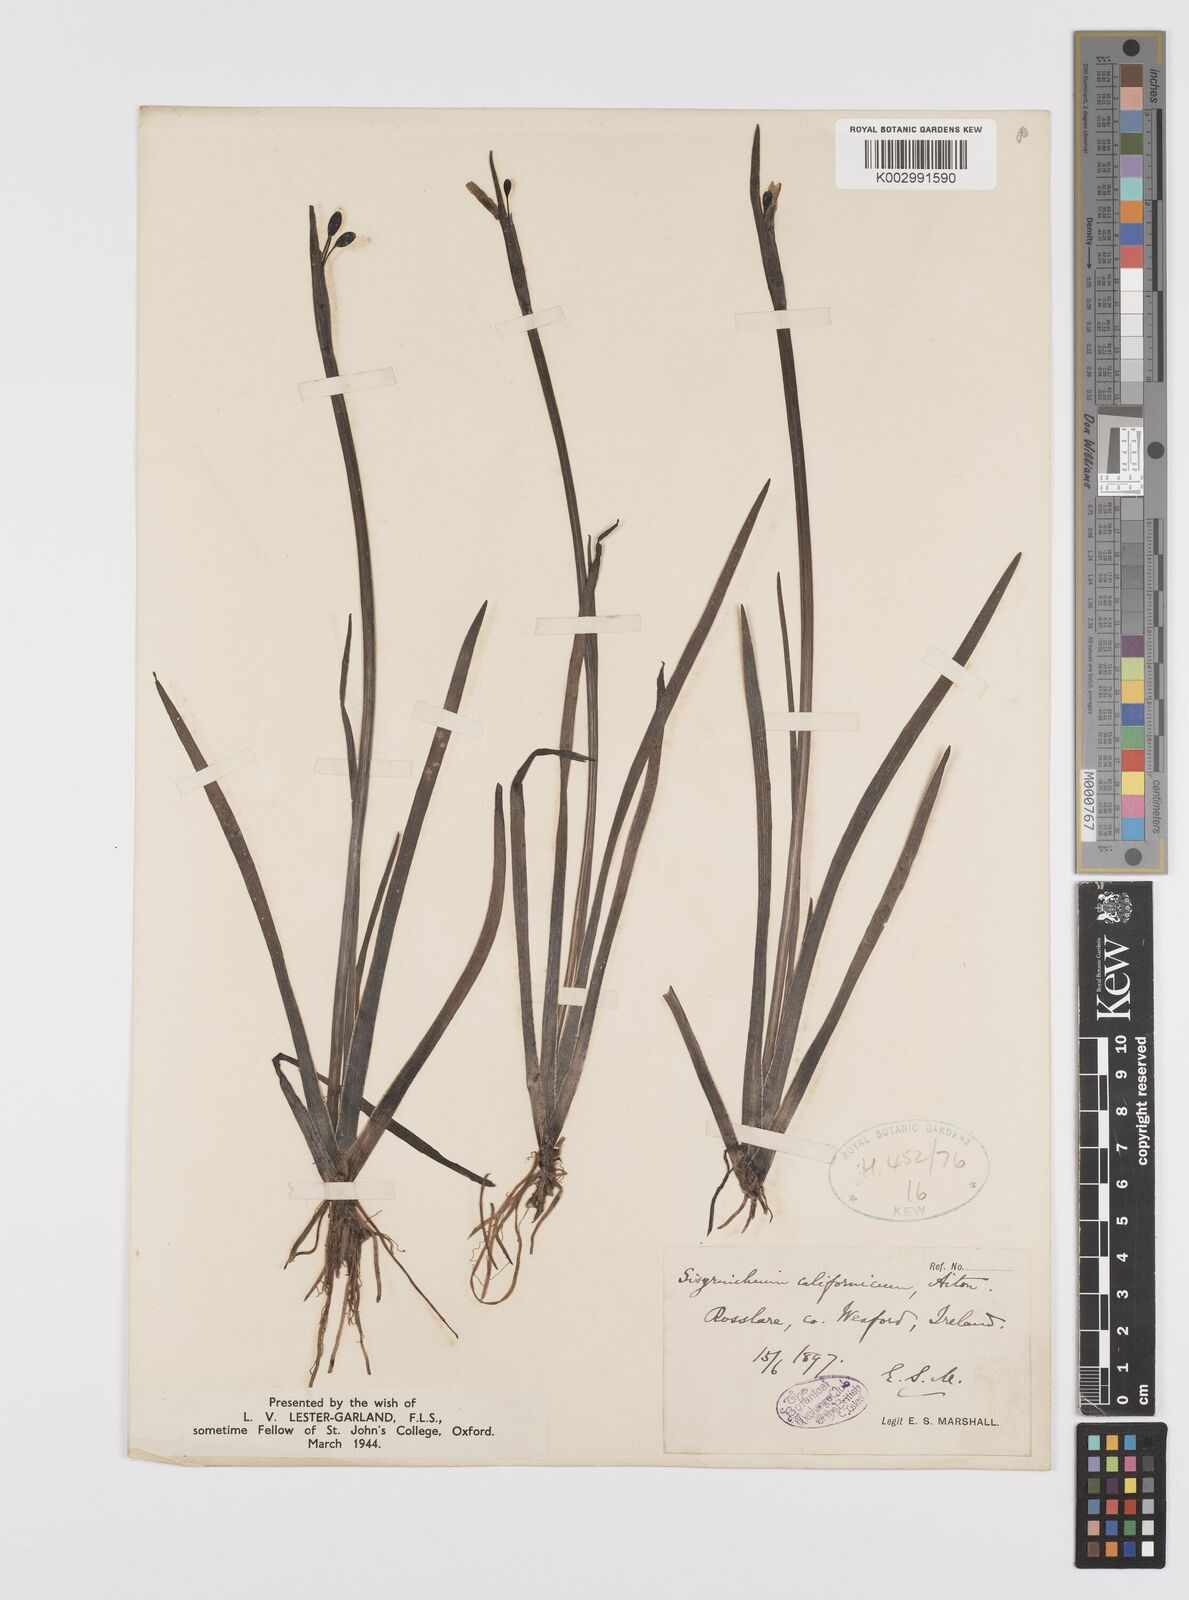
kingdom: Plantae
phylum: Tracheophyta
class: Liliopsida
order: Asparagales
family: Iridaceae
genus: Sisyrinchium
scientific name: Sisyrinchium californicum
